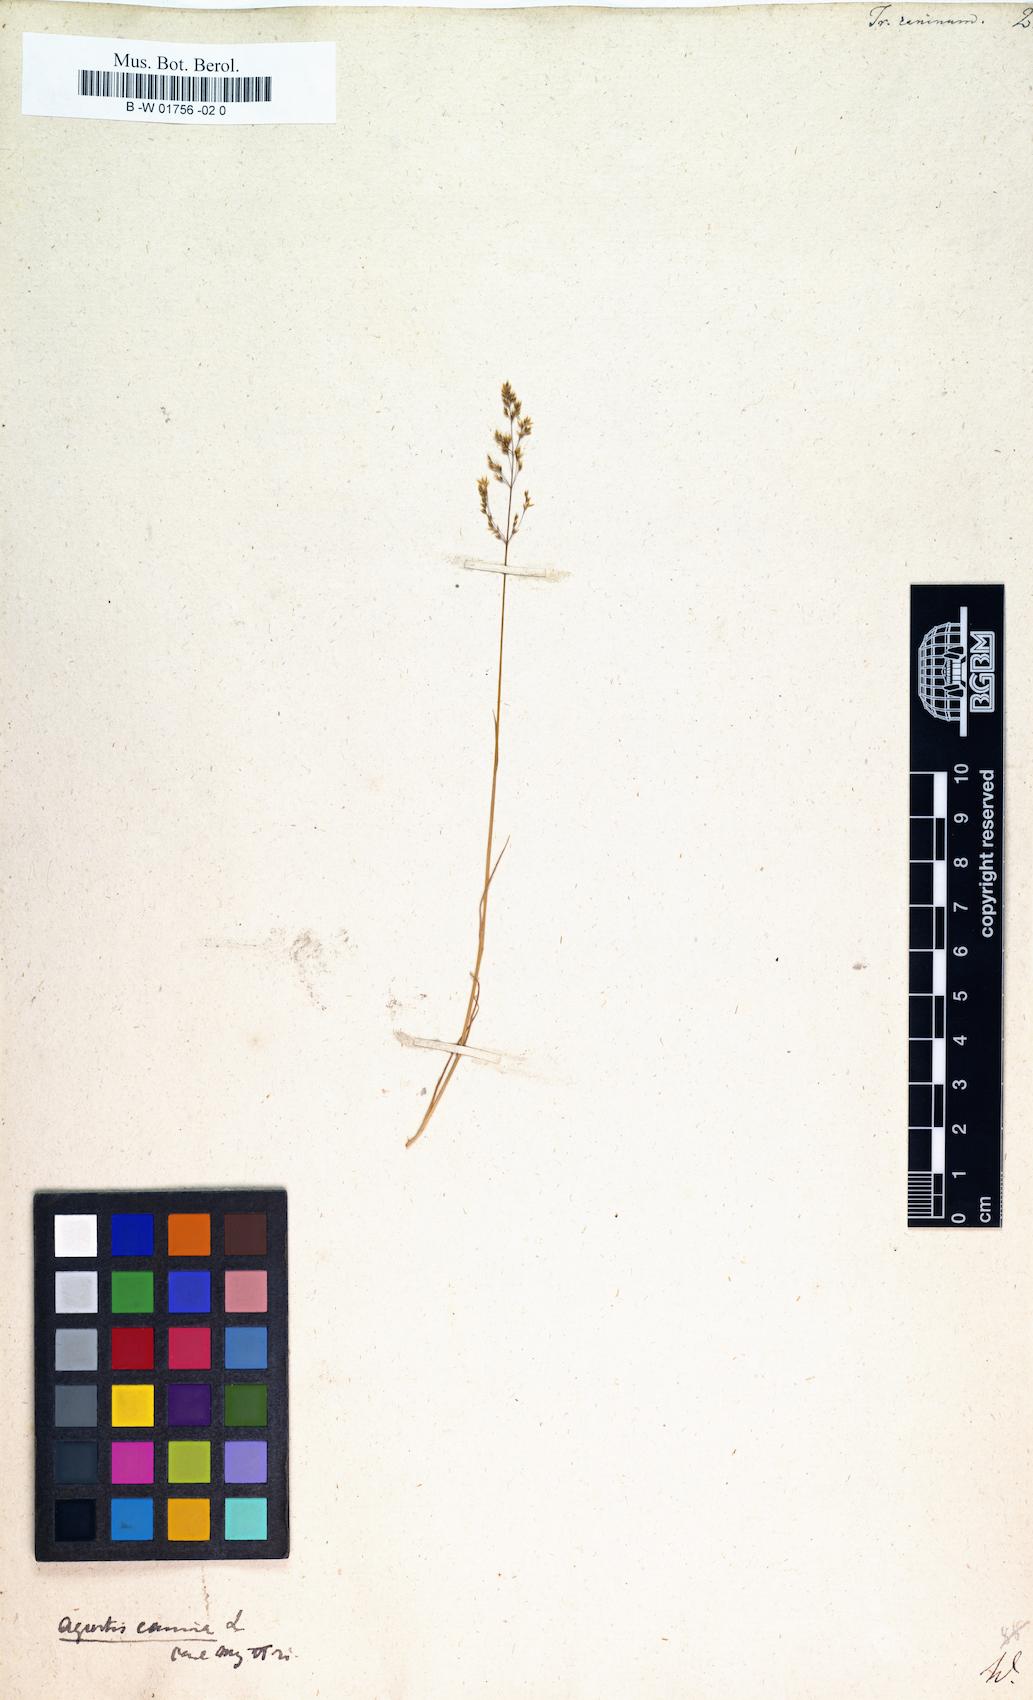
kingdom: Plantae
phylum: Tracheophyta
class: Liliopsida
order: Poales
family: Poaceae
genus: Agrostis
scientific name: Agrostis canina
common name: Velvet bent
